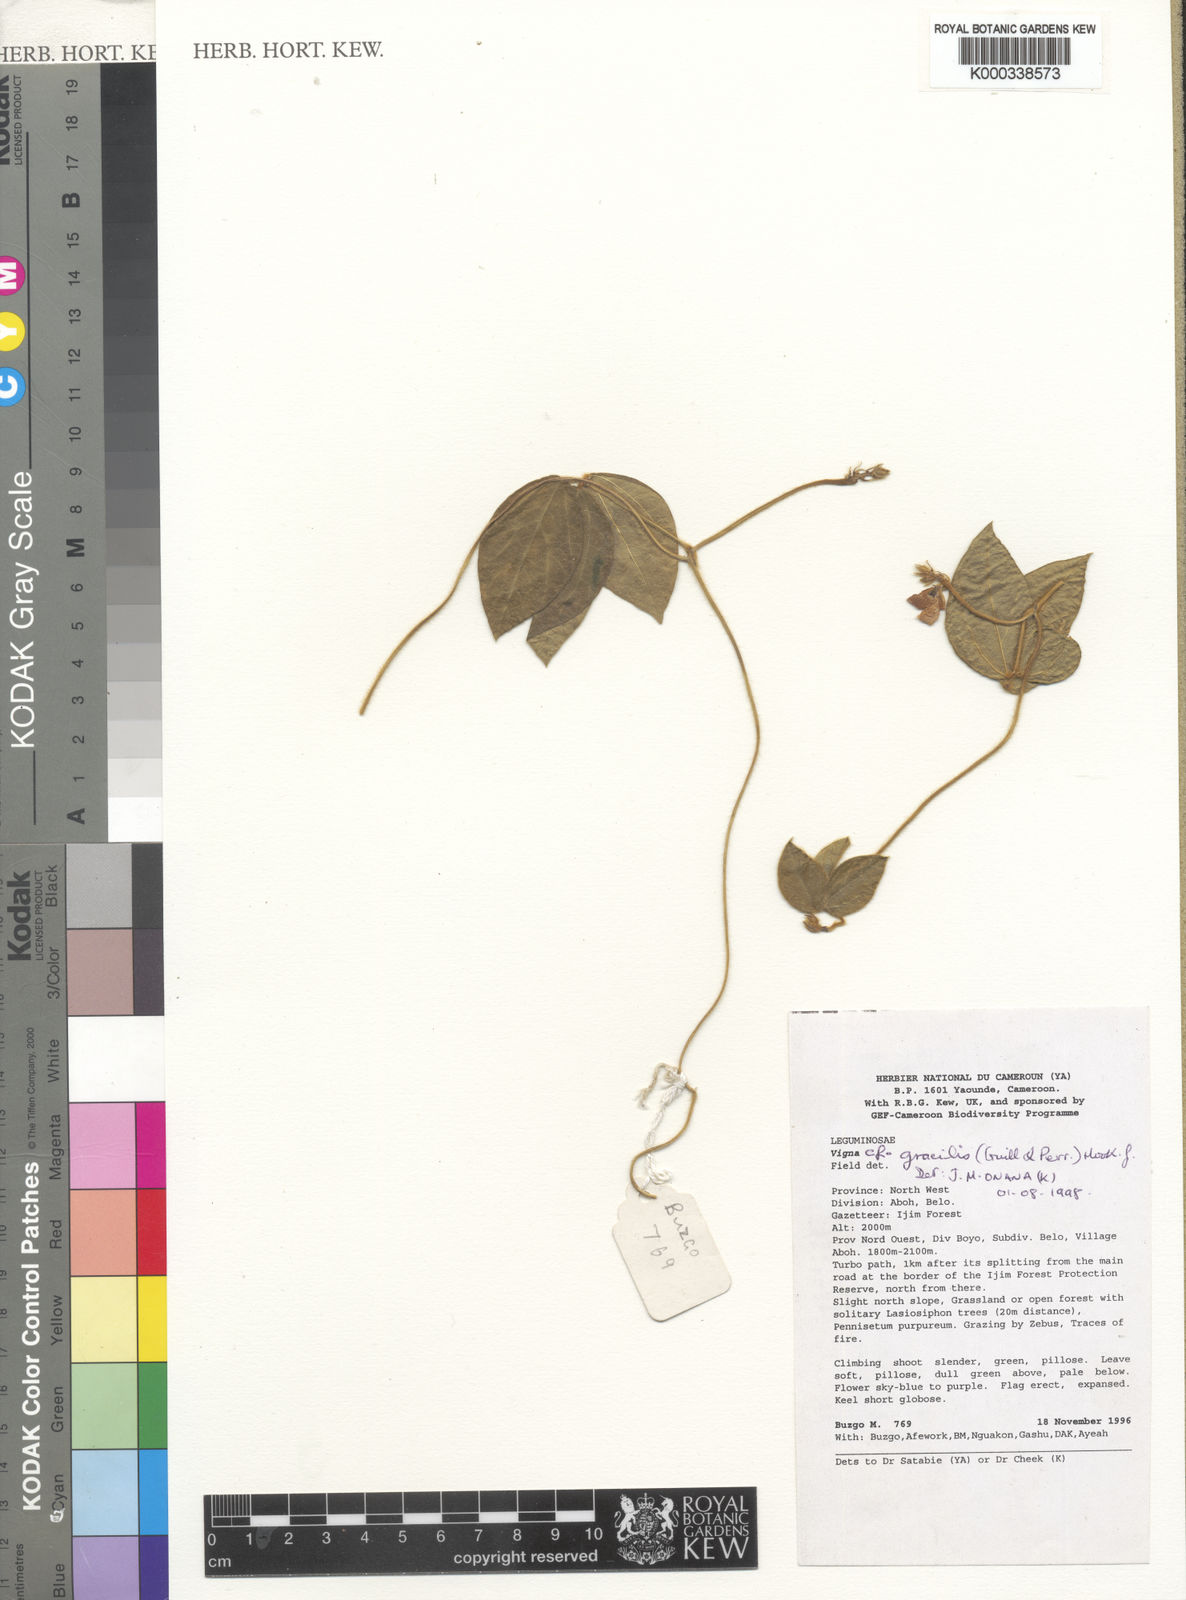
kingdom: Plantae
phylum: Tracheophyta
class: Magnoliopsida
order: Fabales
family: Fabaceae
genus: Vigna
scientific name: Vigna gracilis
